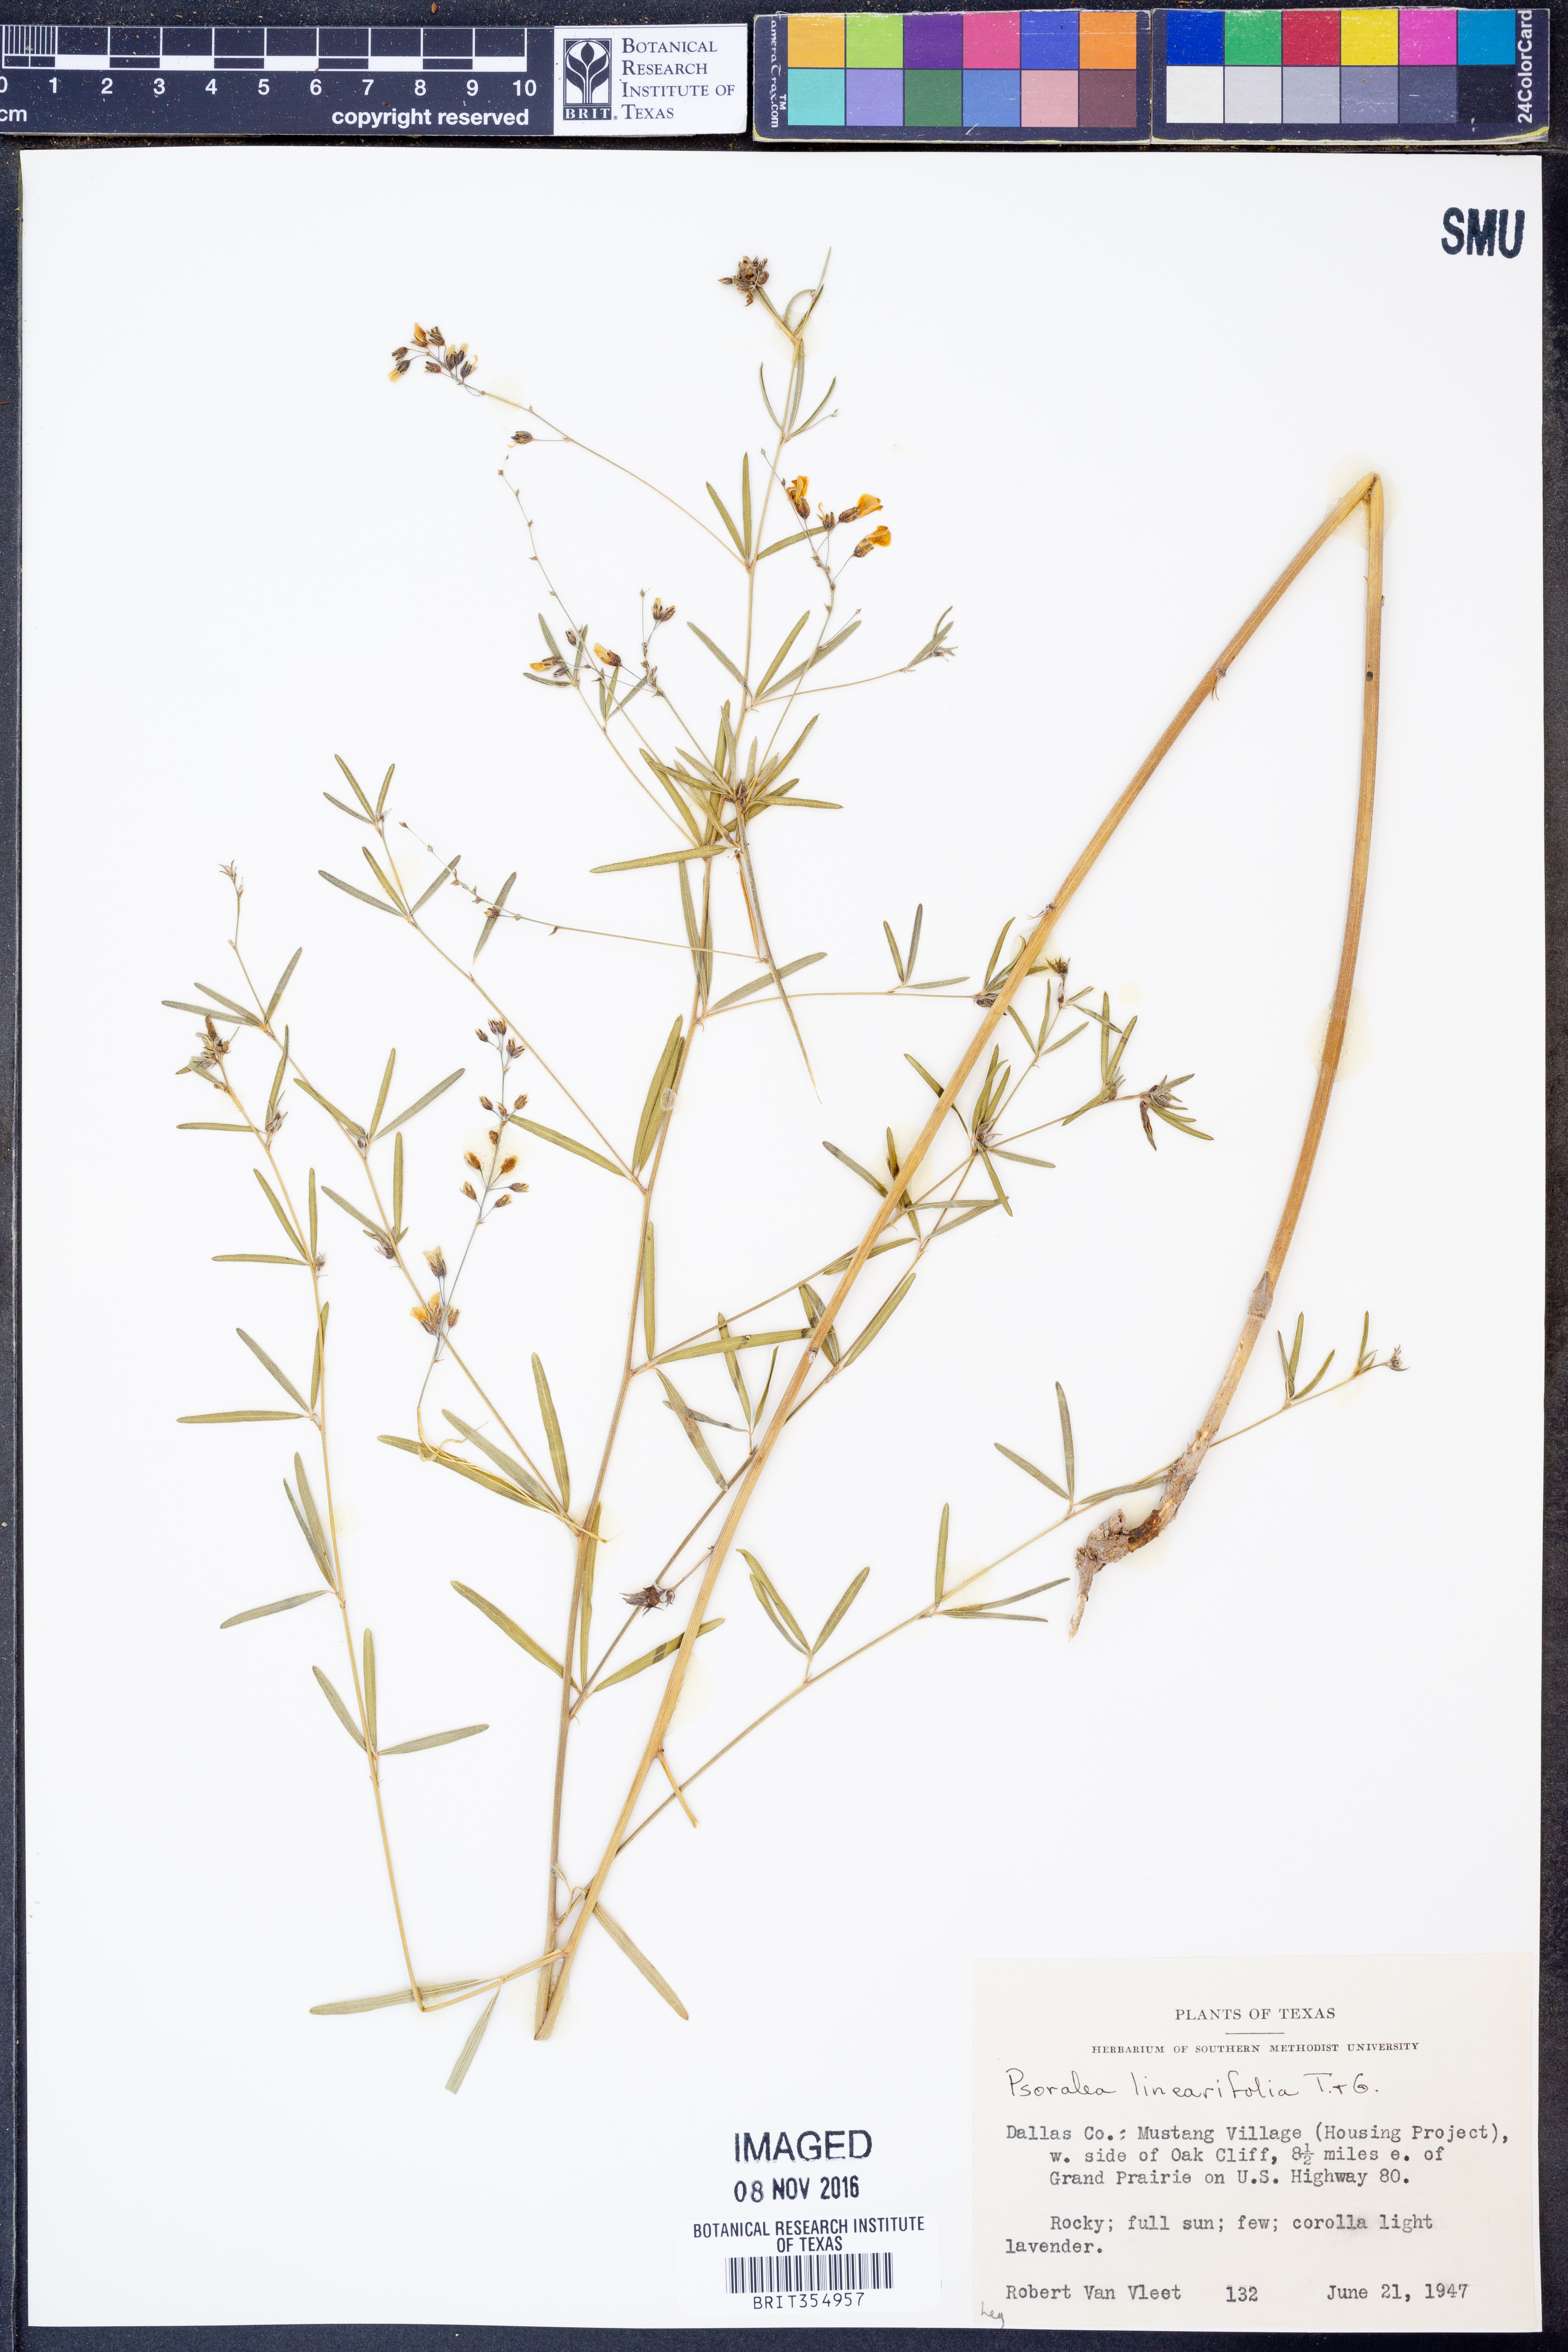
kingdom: Plantae
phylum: Tracheophyta
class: Magnoliopsida
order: Fabales
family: Fabaceae
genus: Pediomelum
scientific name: Pediomelum linearifolium
